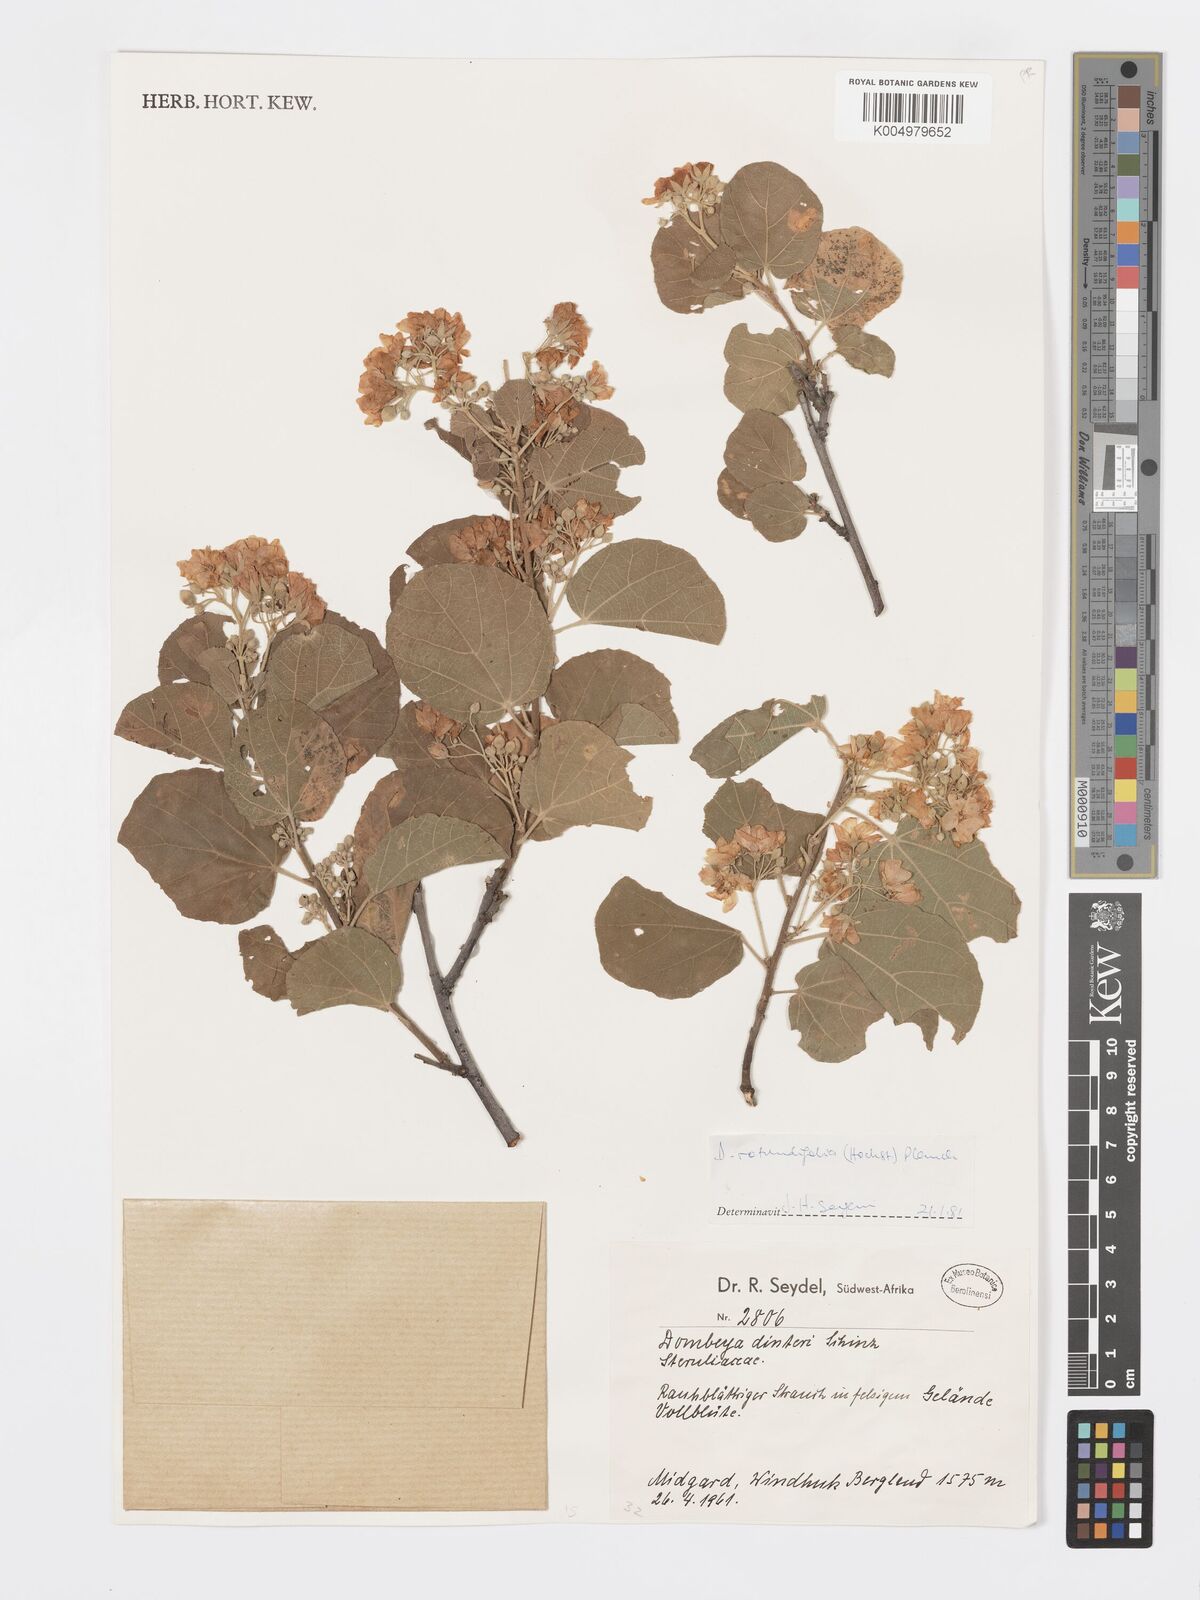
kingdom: Plantae
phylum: Tracheophyta
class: Magnoliopsida
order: Malvales
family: Malvaceae
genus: Dombeya
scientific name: Dombeya rotundifolia
